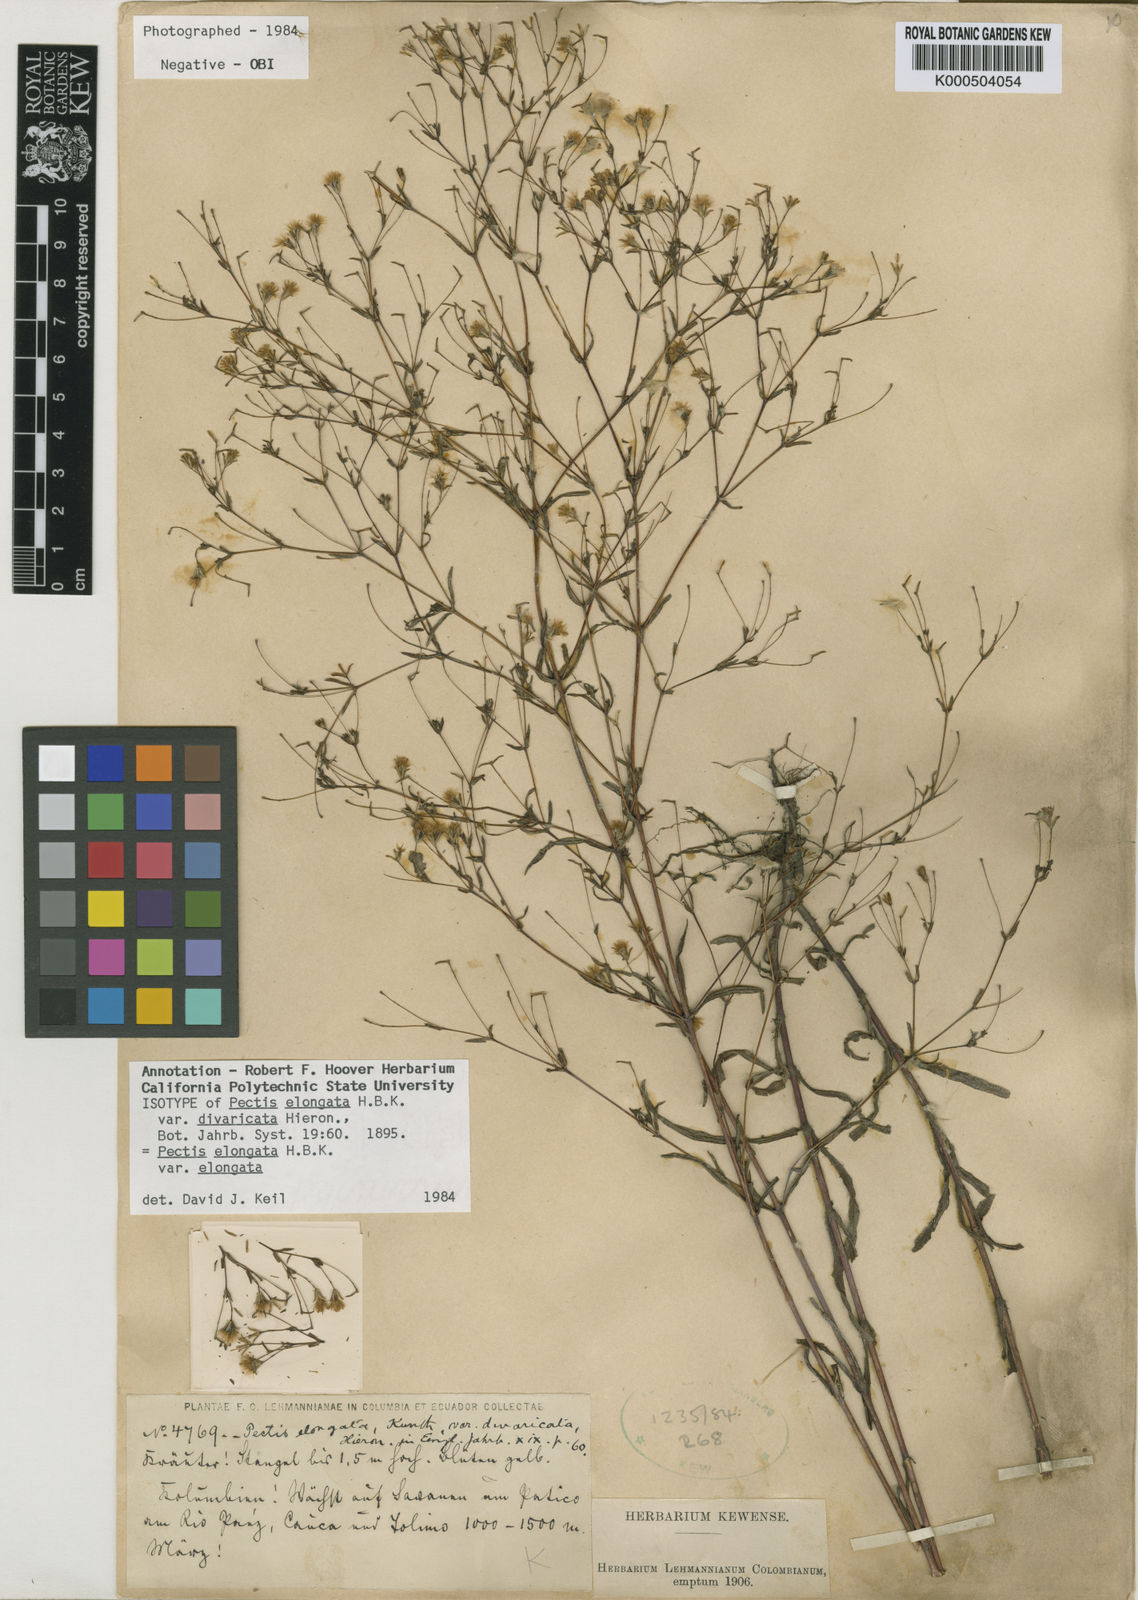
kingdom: Plantae
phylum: Tracheophyta
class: Magnoliopsida
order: Asterales
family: Asteraceae
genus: Pectis
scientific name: Pectis elongata
